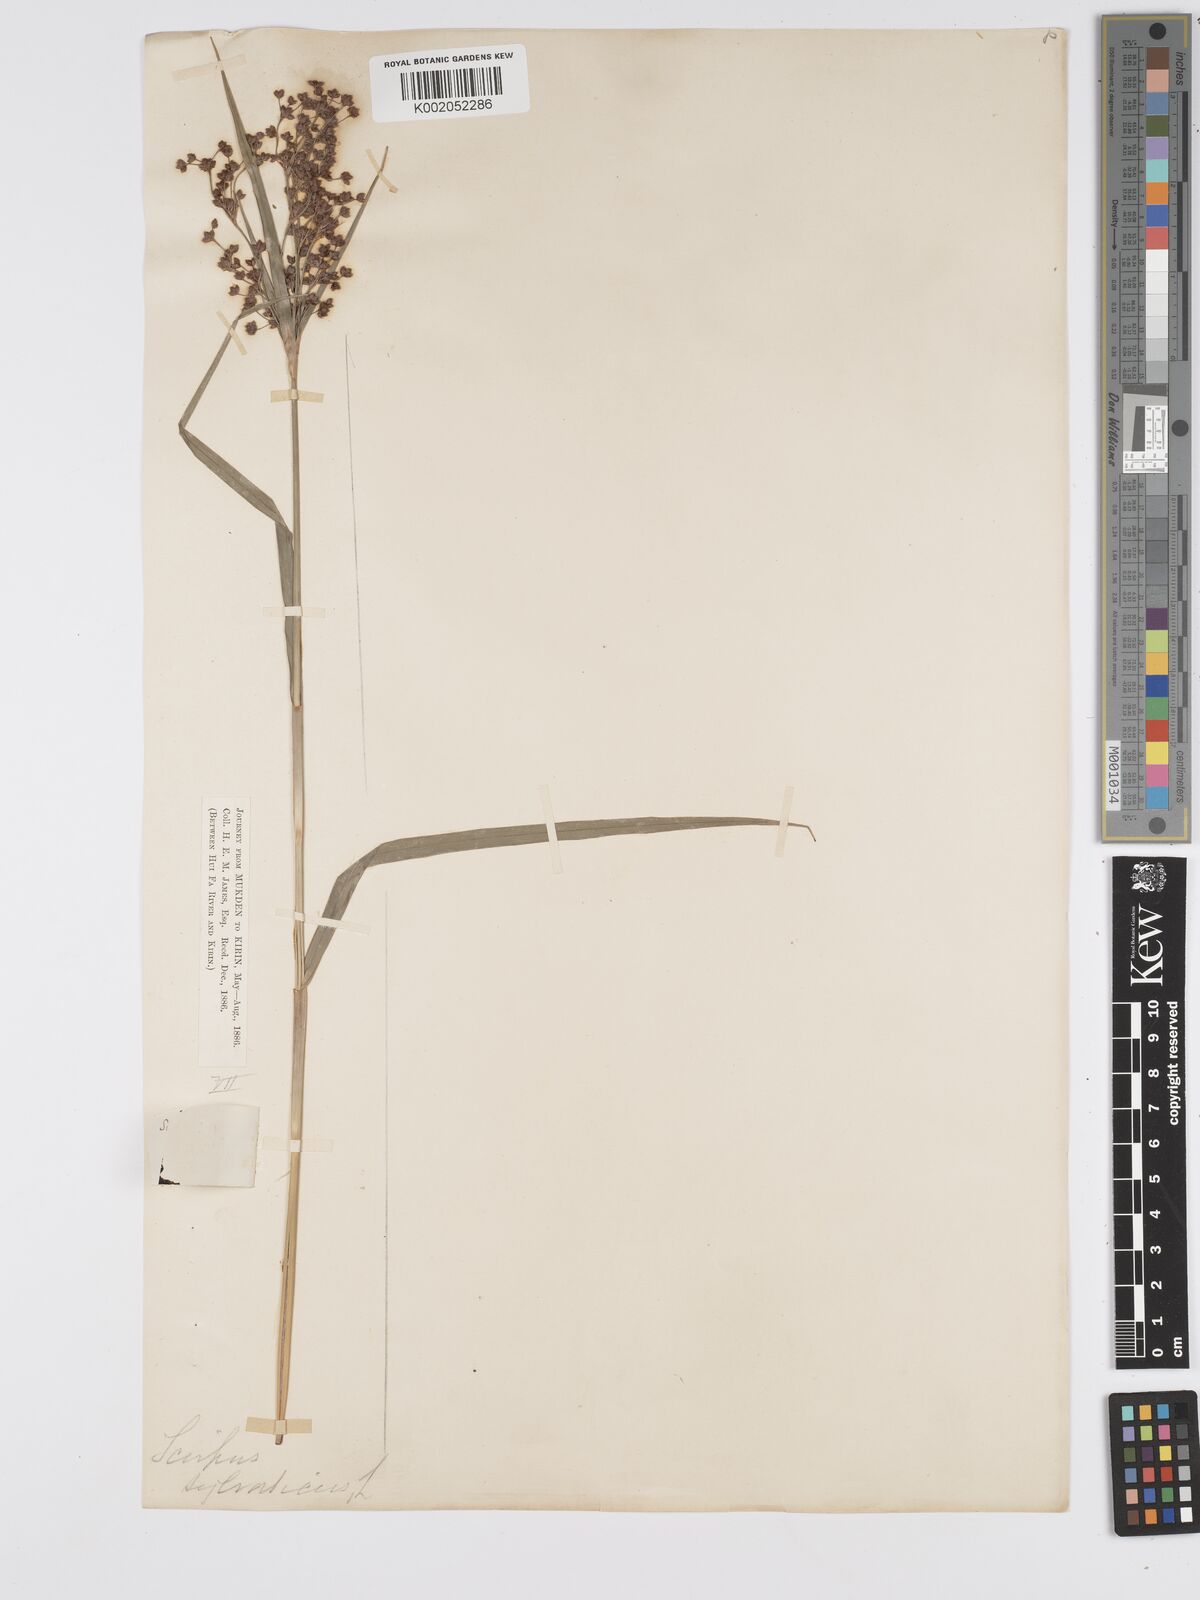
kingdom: Plantae
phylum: Tracheophyta
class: Liliopsida
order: Poales
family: Cyperaceae
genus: Scirpus
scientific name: Scirpus cyperinus
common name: Black-sheathed bulrush
